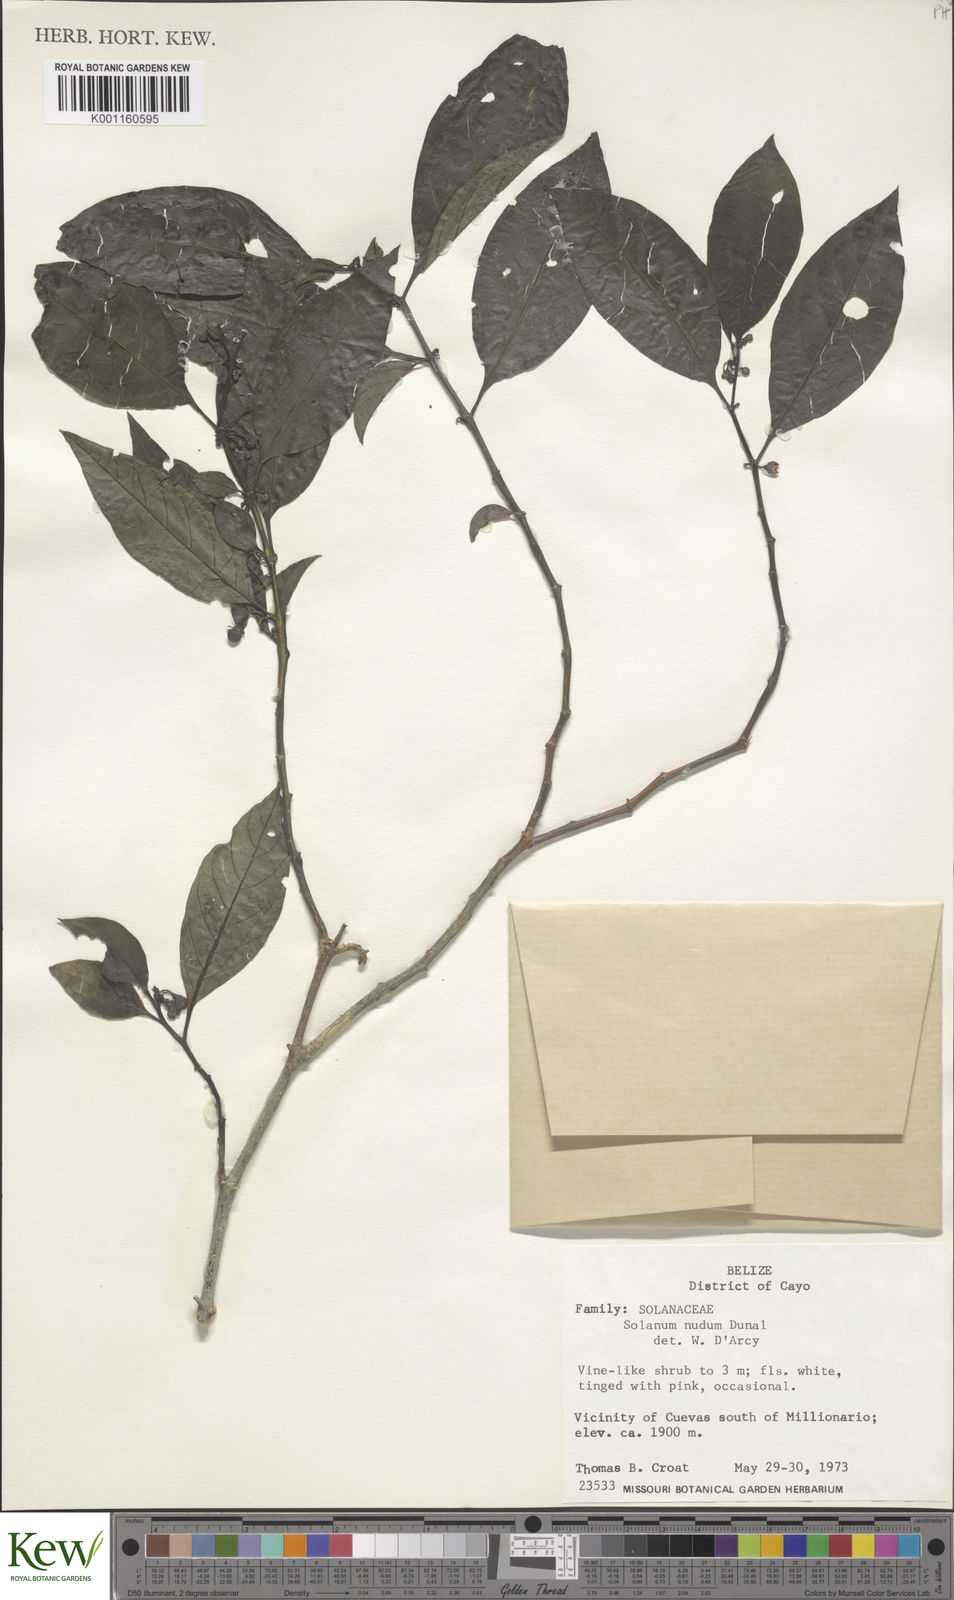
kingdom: Plantae
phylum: Tracheophyta
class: Magnoliopsida
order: Solanales
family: Solanaceae
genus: Solanum
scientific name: Solanum nudum
